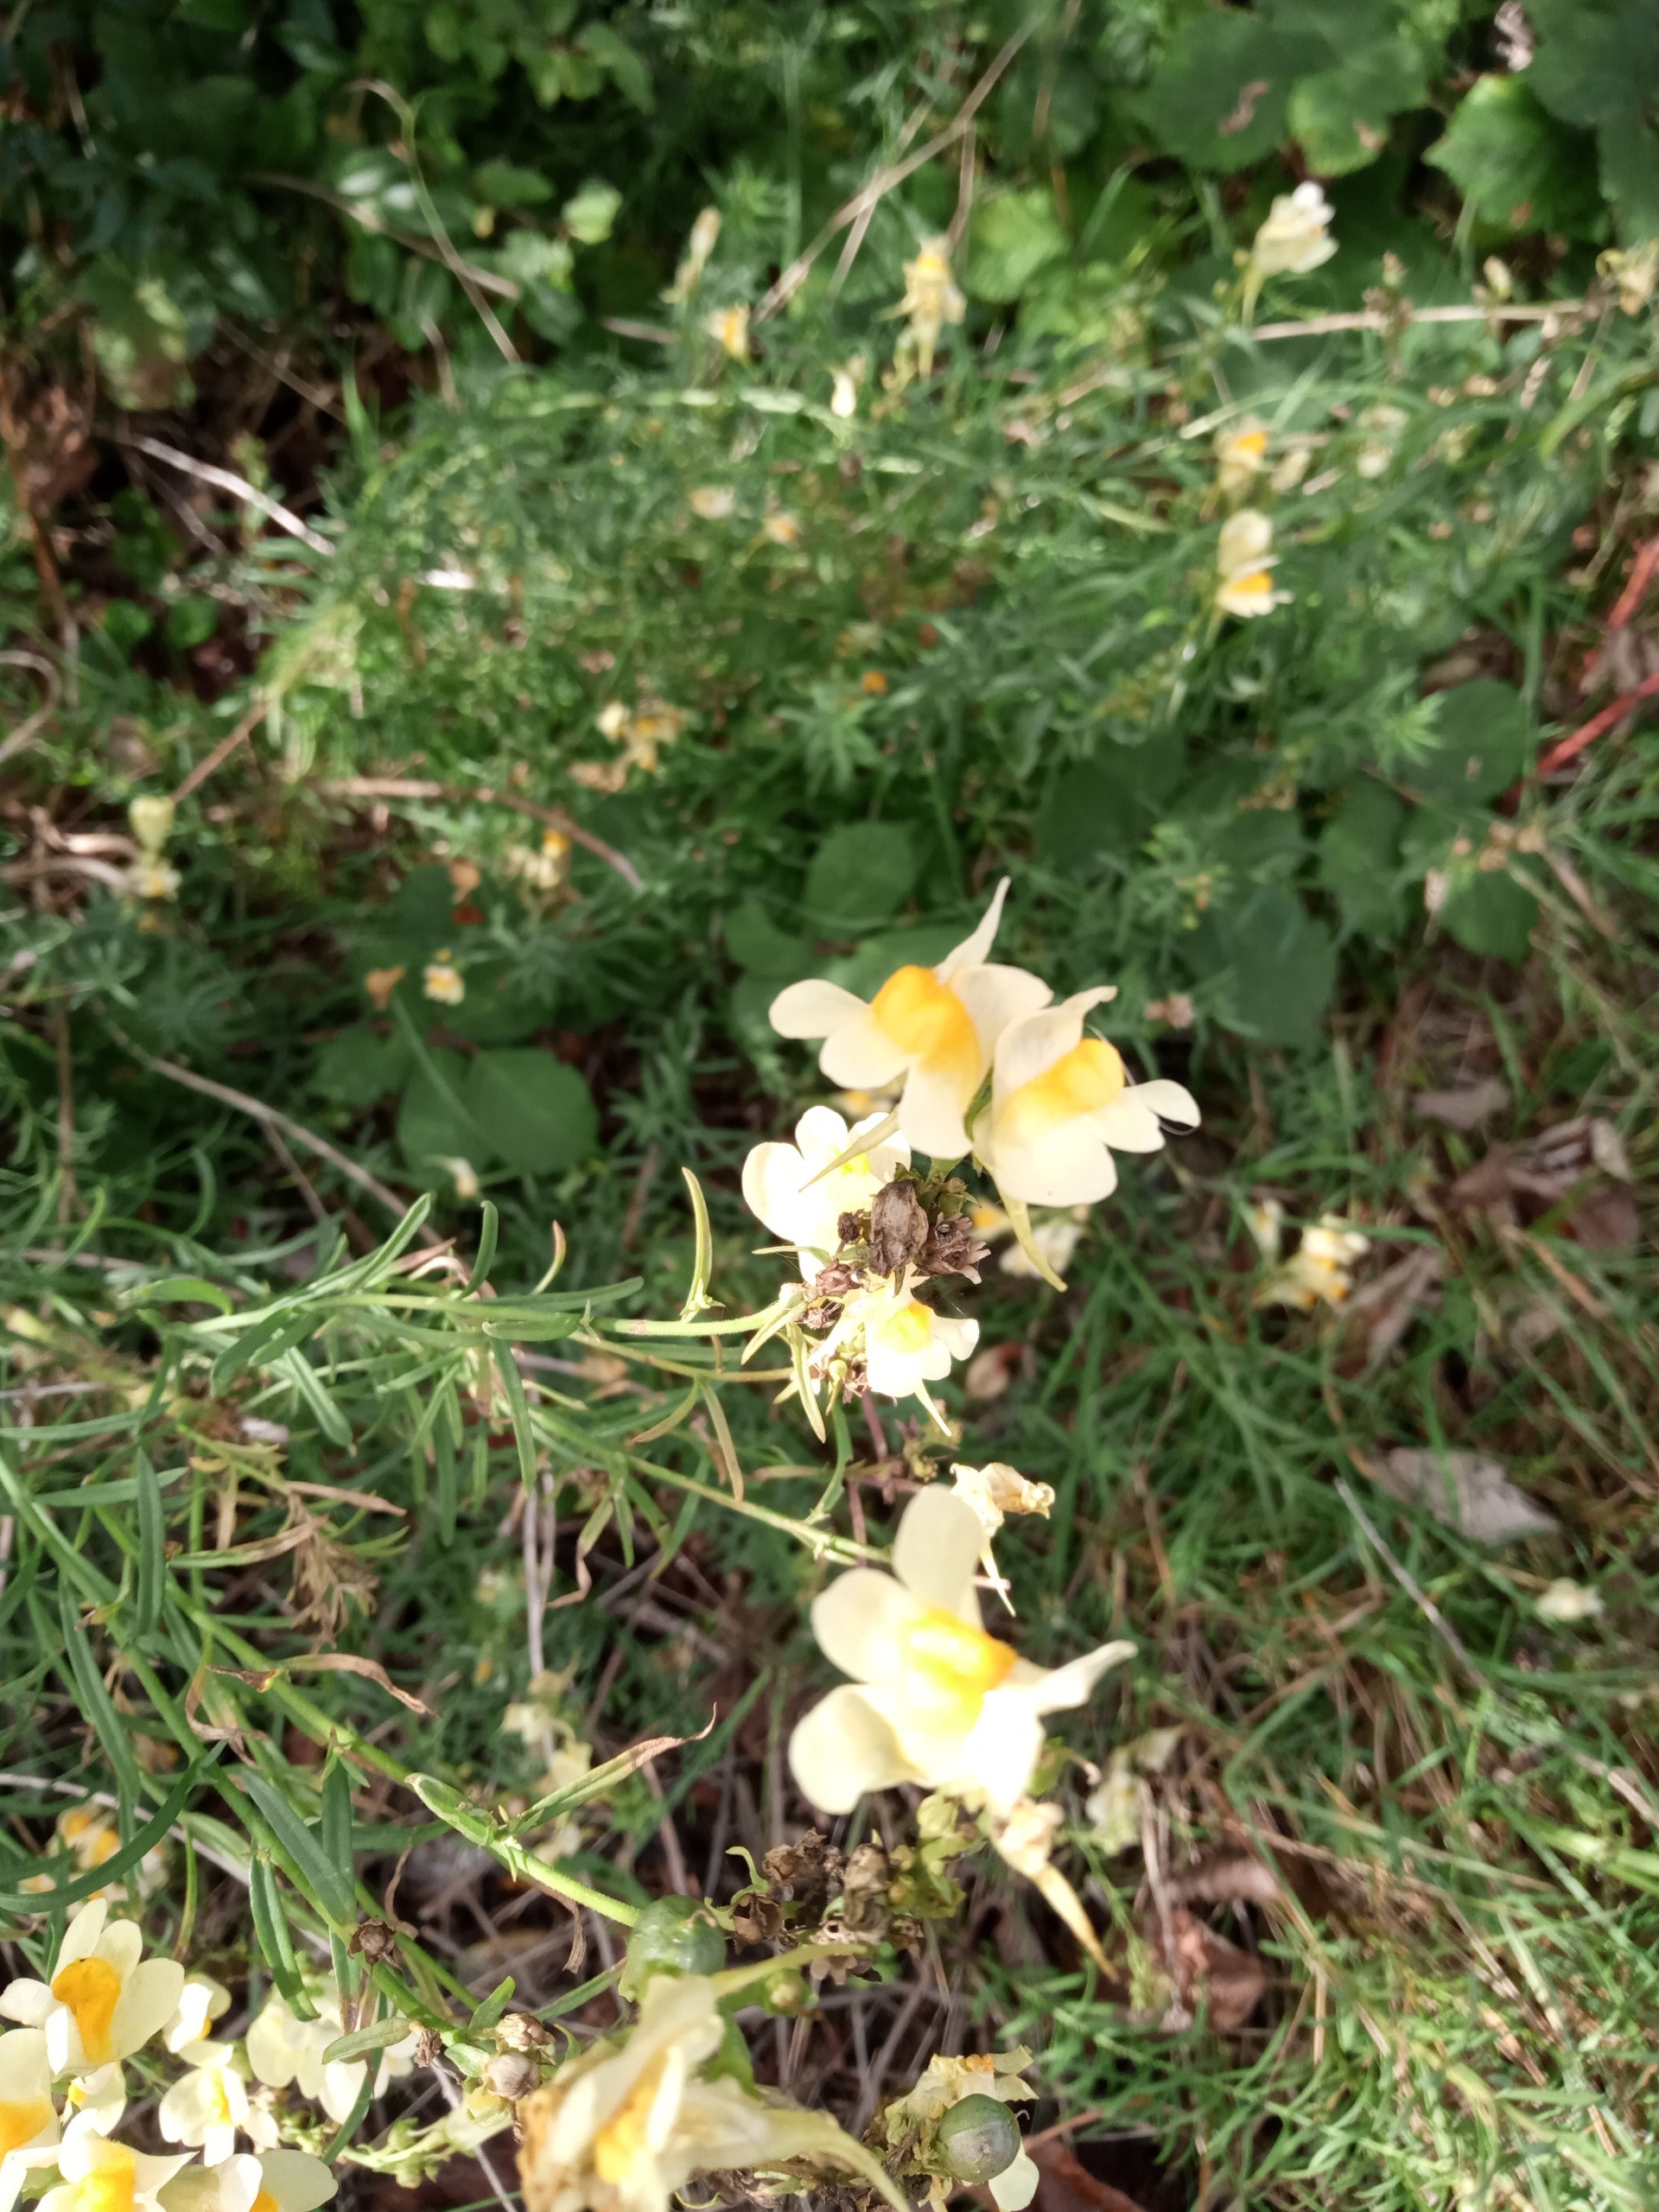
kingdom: Plantae
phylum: Tracheophyta
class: Magnoliopsida
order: Lamiales
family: Plantaginaceae
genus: Linaria
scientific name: Linaria vulgaris
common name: Almindelig torskemund
